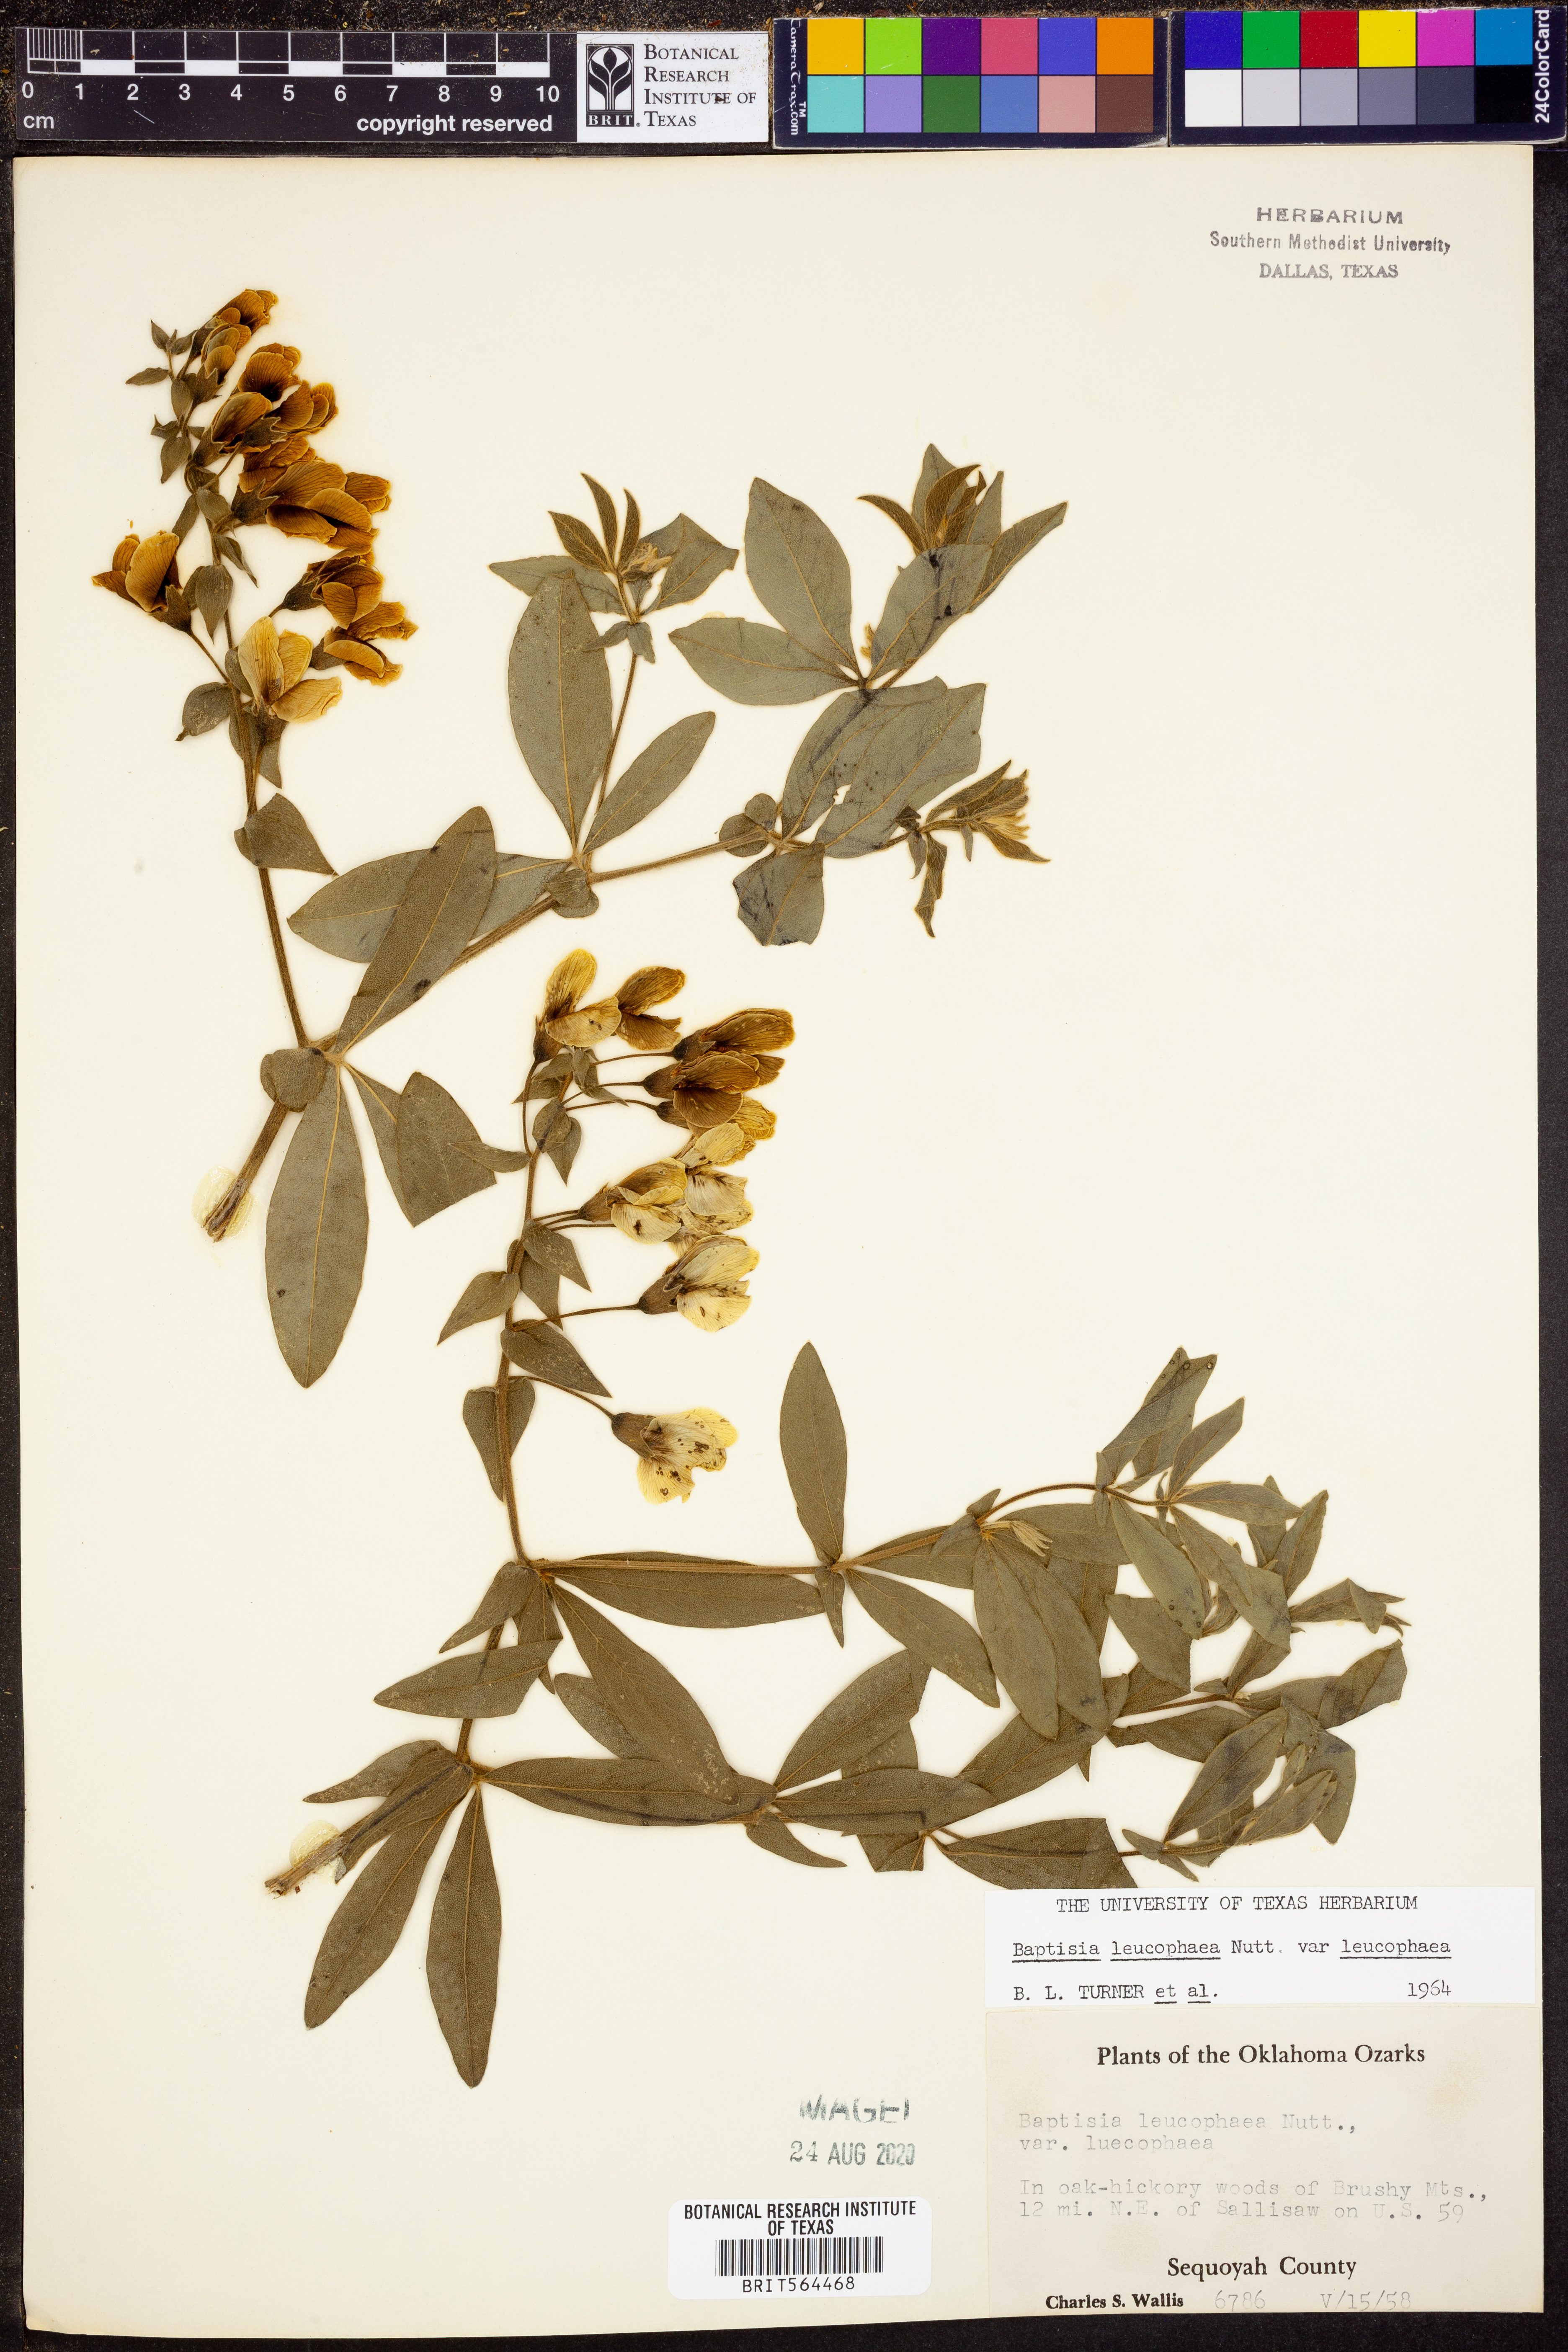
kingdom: Plantae
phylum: Tracheophyta
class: Magnoliopsida
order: Fabales
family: Fabaceae
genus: Baptisia
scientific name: Baptisia bracteata
